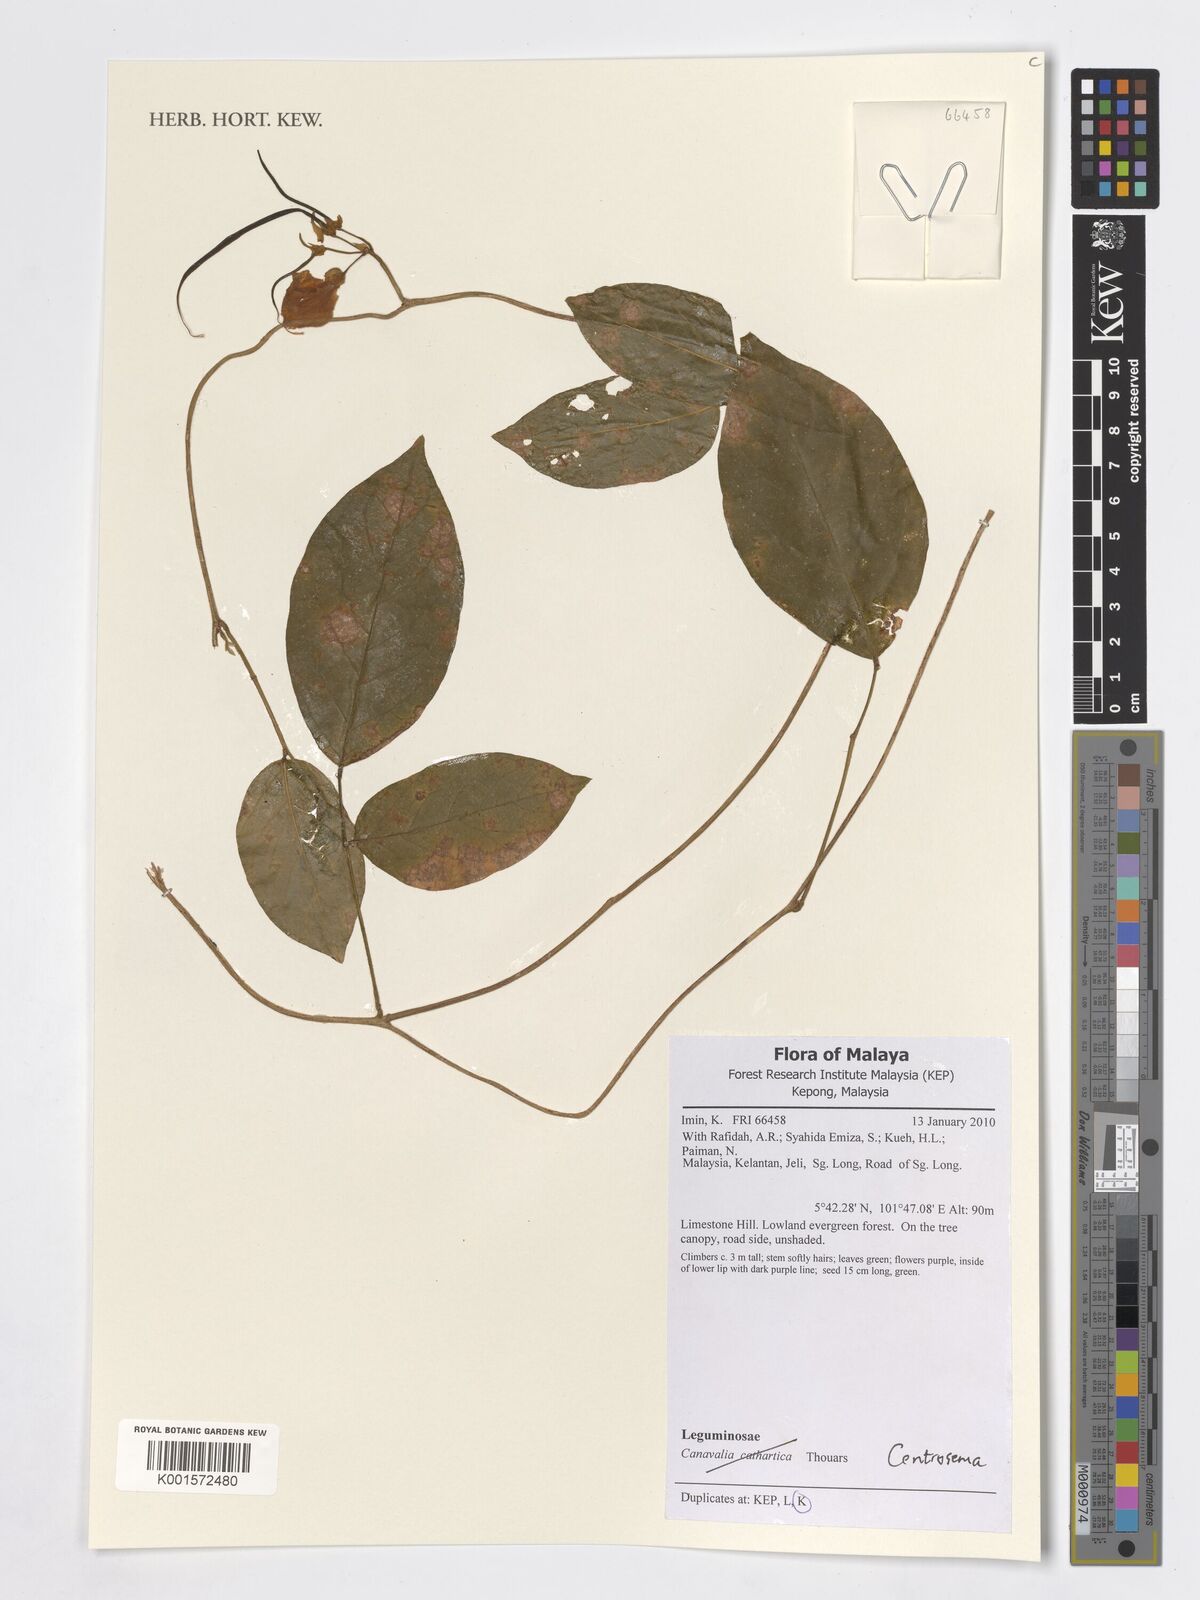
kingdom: Plantae
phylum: Tracheophyta
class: Magnoliopsida
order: Fabales
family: Fabaceae
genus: Centrosema
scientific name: Centrosema
